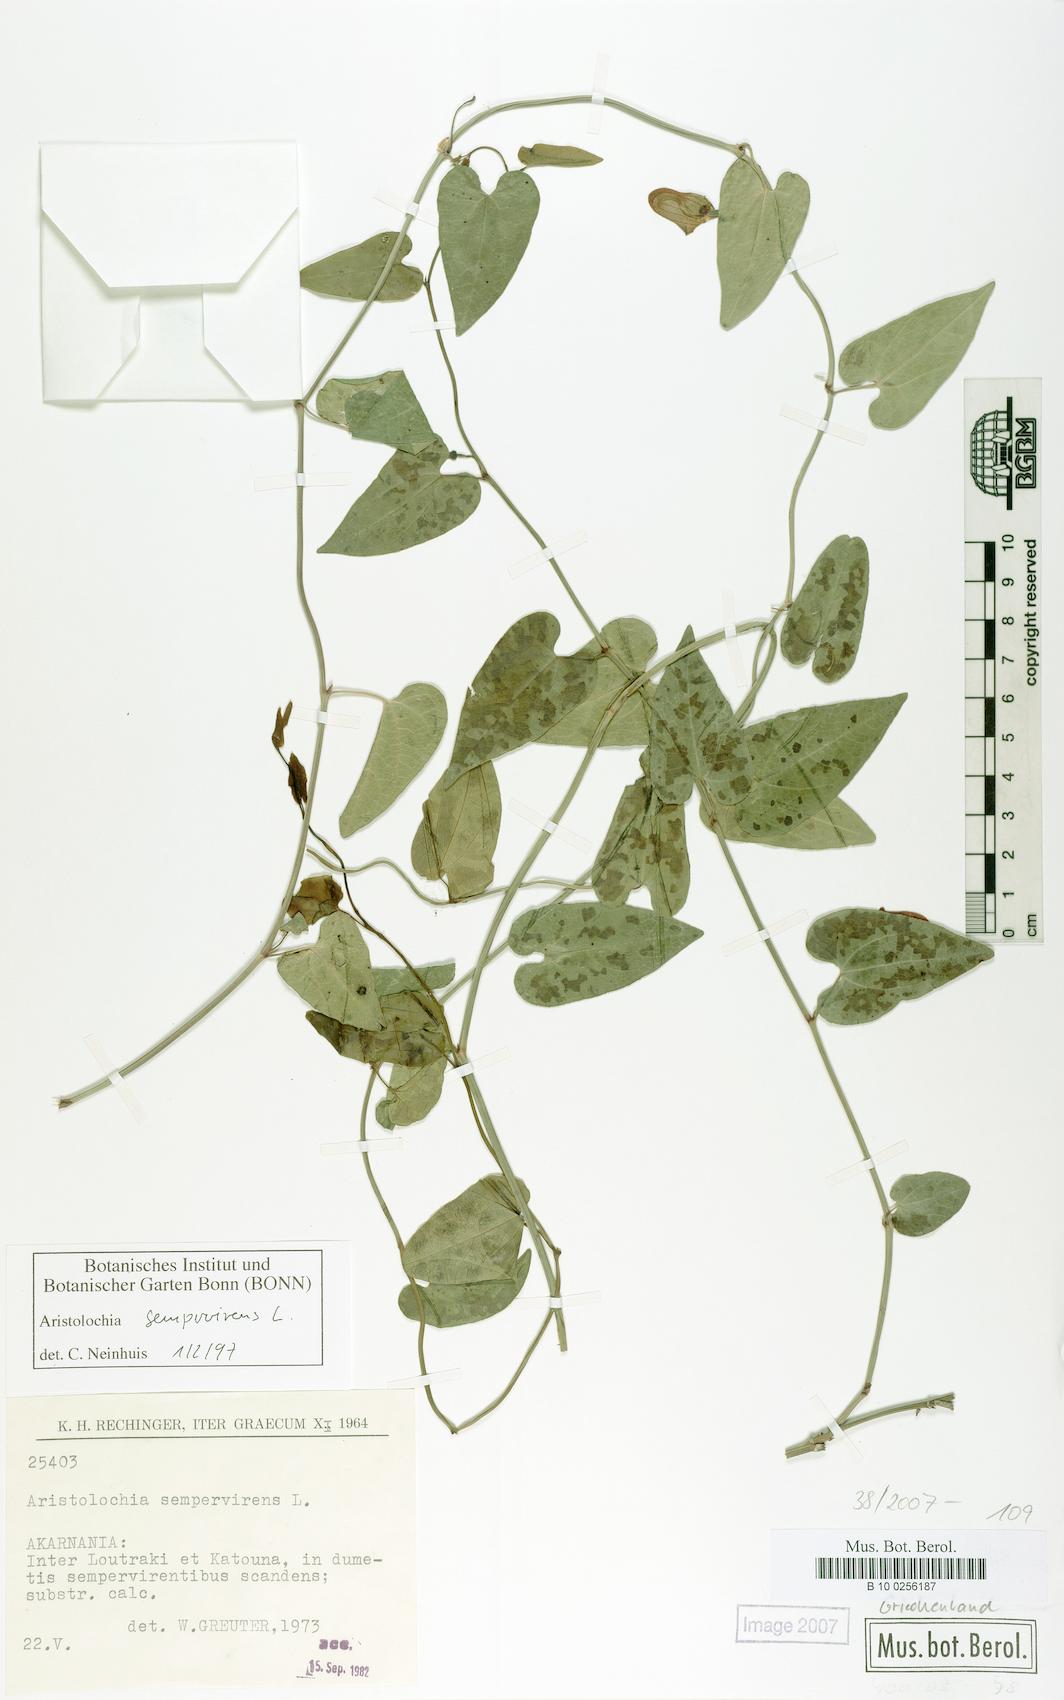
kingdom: Plantae
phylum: Tracheophyta
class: Magnoliopsida
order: Piperales
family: Aristolochiaceae
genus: Aristolochia
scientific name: Aristolochia sempervirens
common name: Long birthwort
